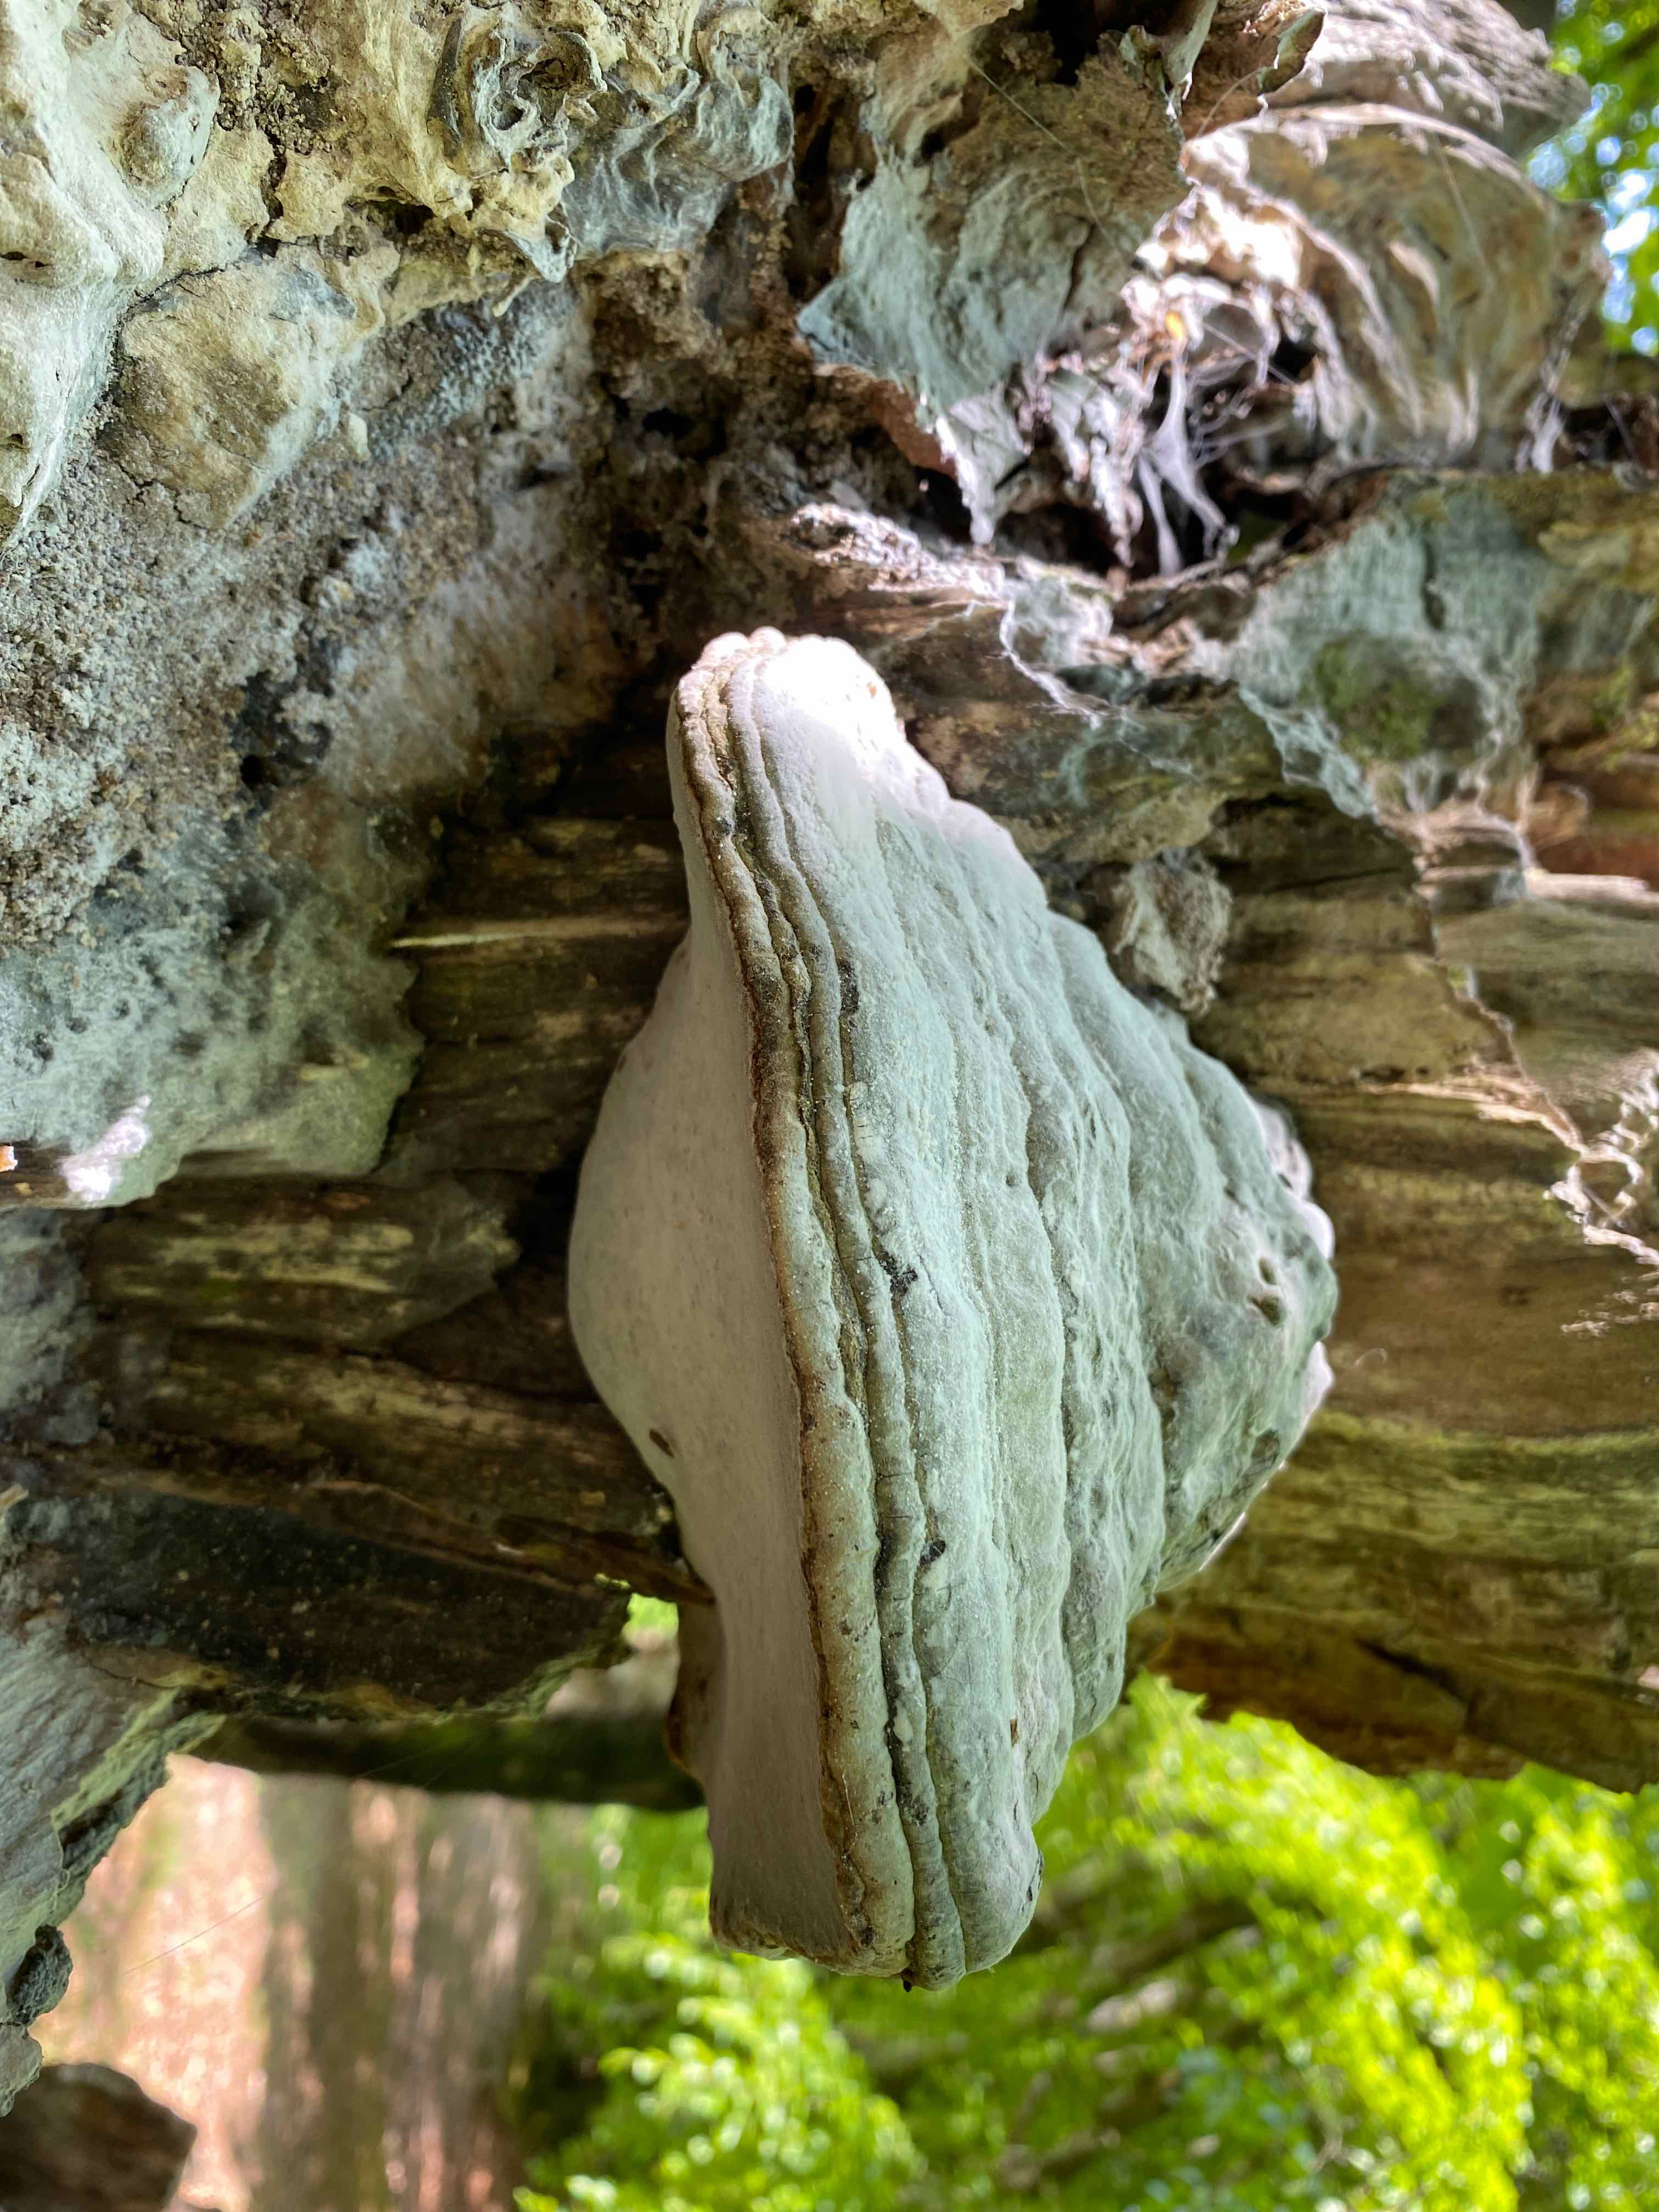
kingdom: Fungi
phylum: Basidiomycota
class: Agaricomycetes
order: Polyporales
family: Polyporaceae
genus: Fomes
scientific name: Fomes fomentarius
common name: tøndersvamp
